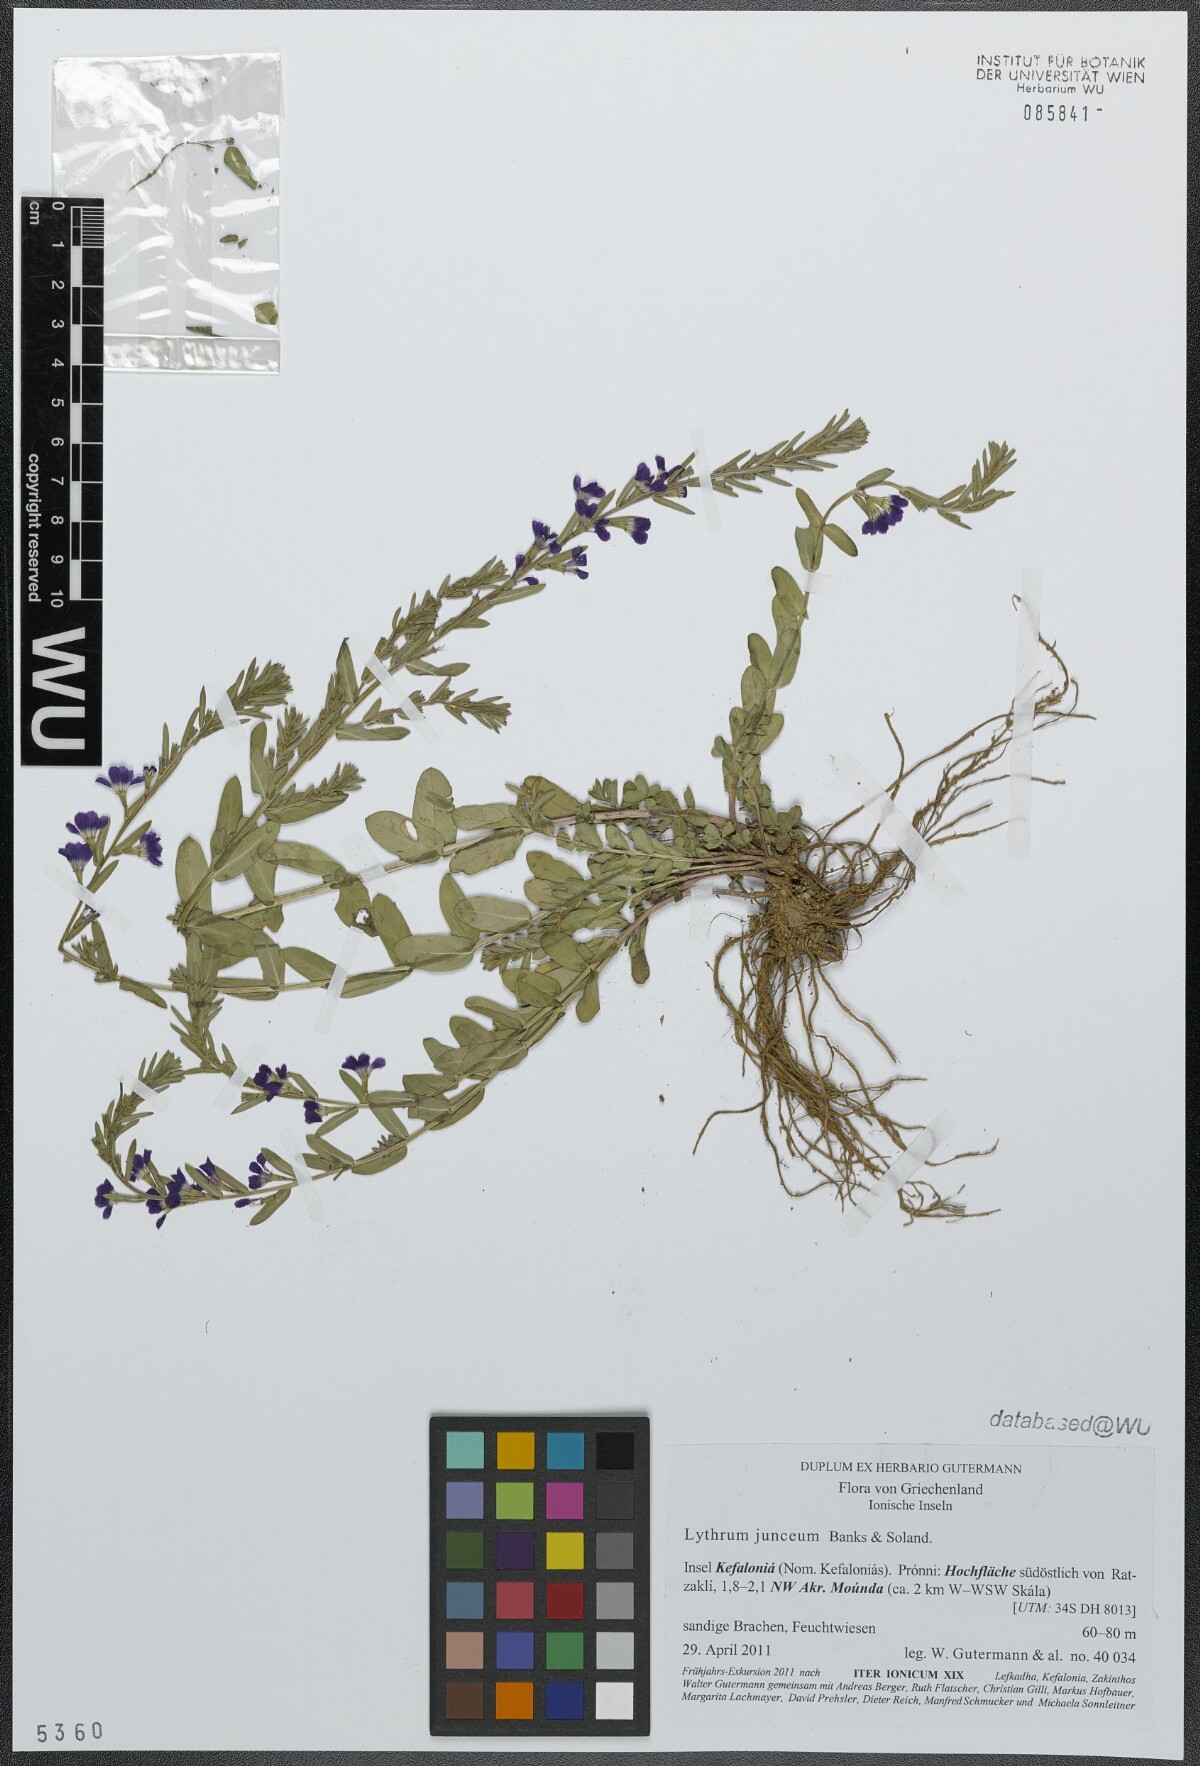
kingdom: Plantae
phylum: Tracheophyta
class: Magnoliopsida
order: Myrtales
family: Lythraceae
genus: Lythrum
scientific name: Lythrum junceum
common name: False grass-poly
